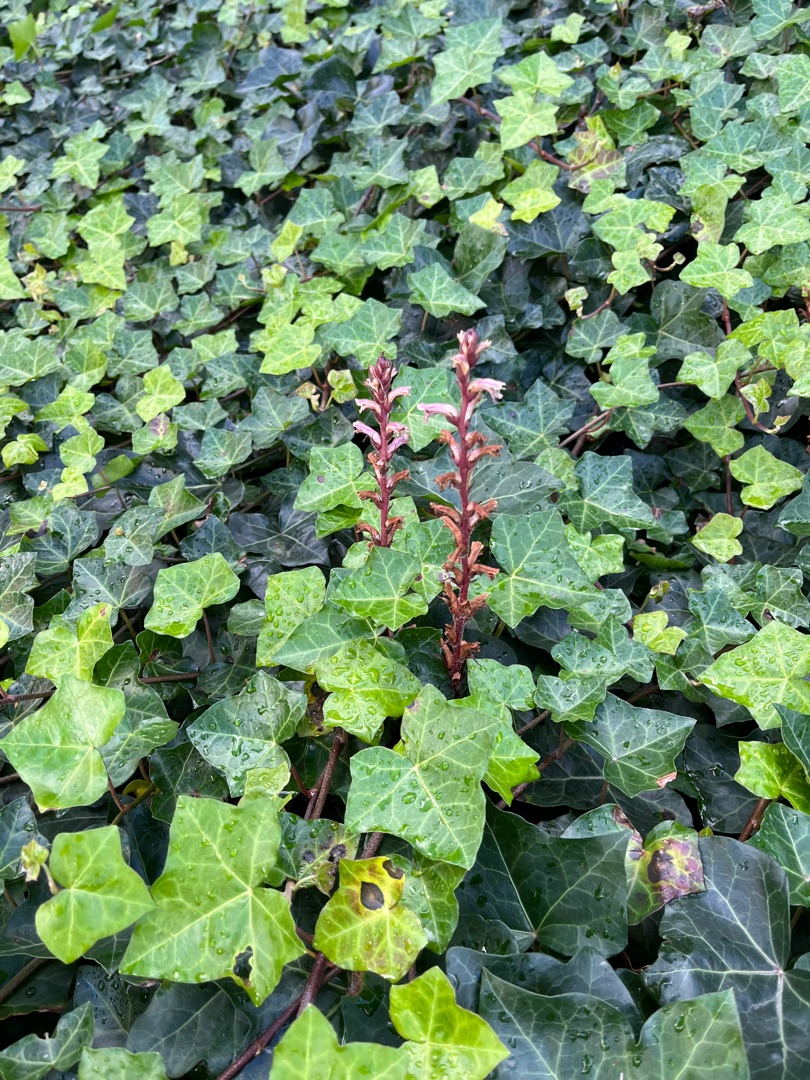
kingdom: Plantae
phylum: Tracheophyta
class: Magnoliopsida
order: Lamiales
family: Orobanchaceae
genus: Orobanche
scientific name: Orobanche hederae
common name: Vedbend-gyvelkvæler
